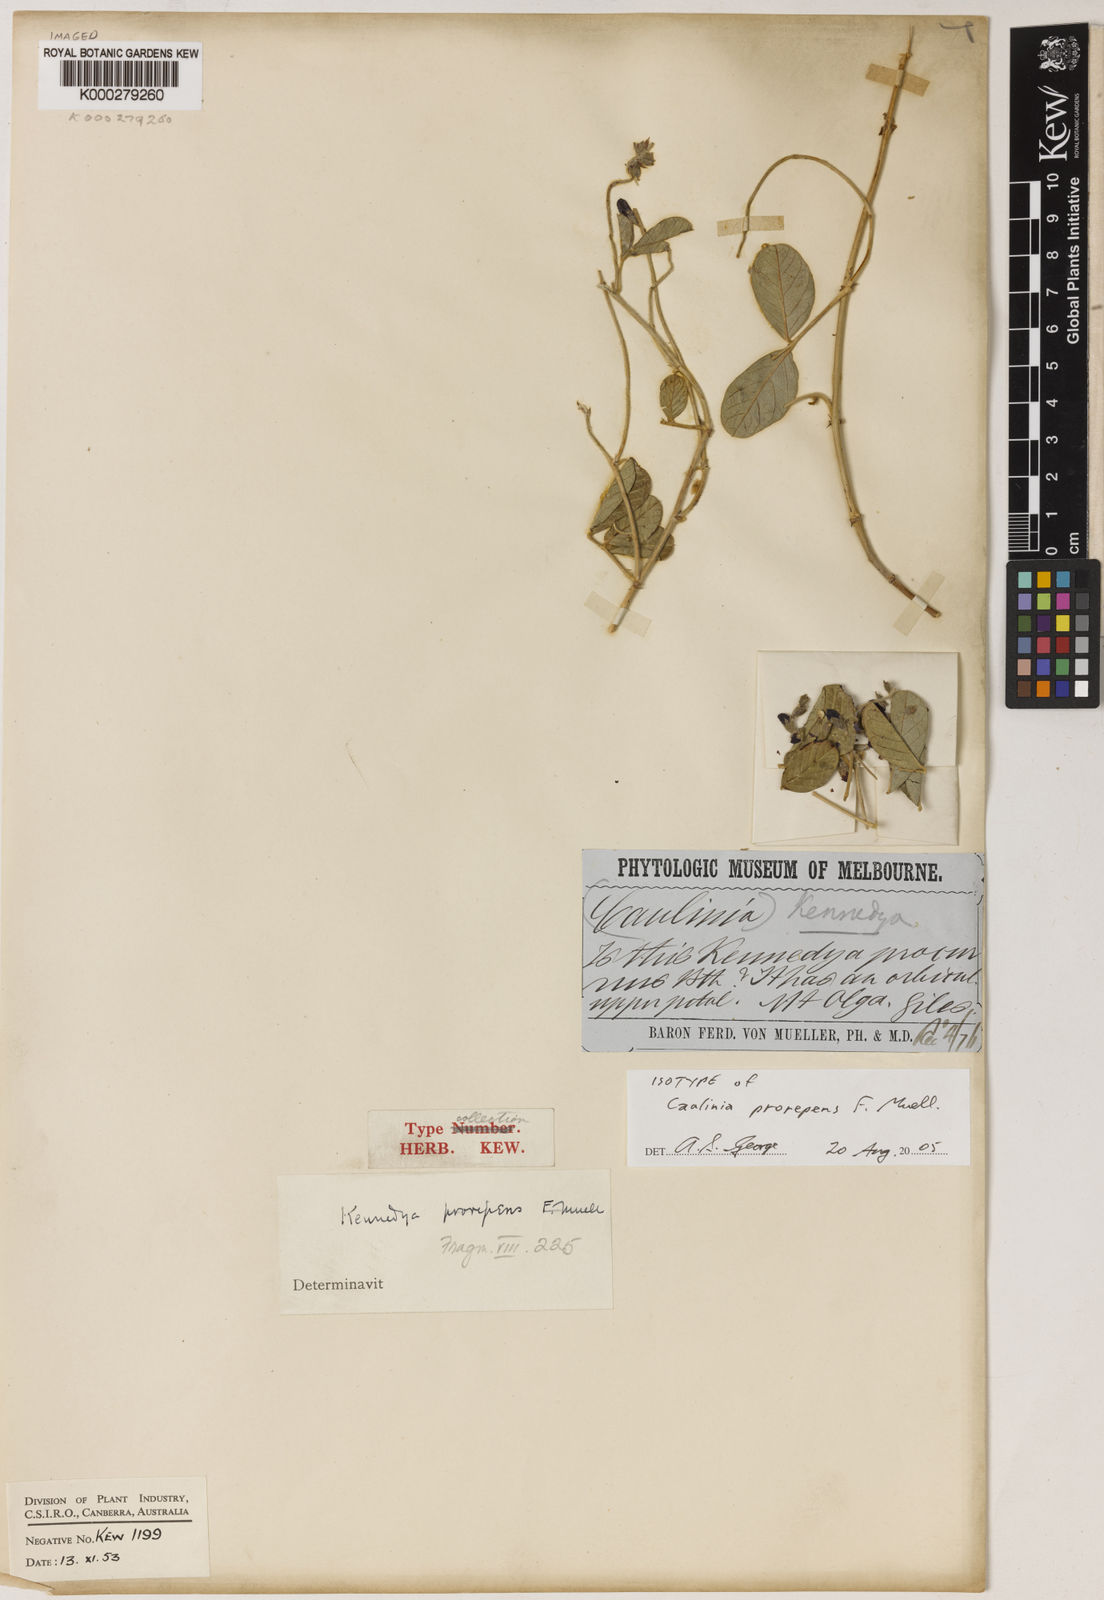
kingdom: Plantae
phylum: Tracheophyta
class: Magnoliopsida
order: Fabales
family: Fabaceae
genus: Kennedia
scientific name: Kennedia prorepens
